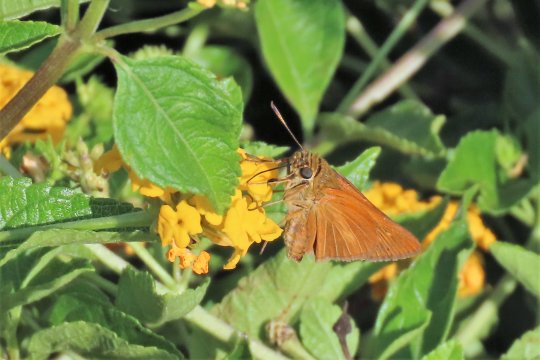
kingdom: Animalia
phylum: Arthropoda
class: Insecta
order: Lepidoptera
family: Hesperiidae
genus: Euphyes
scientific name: Euphyes dion
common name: Dion Skipper
